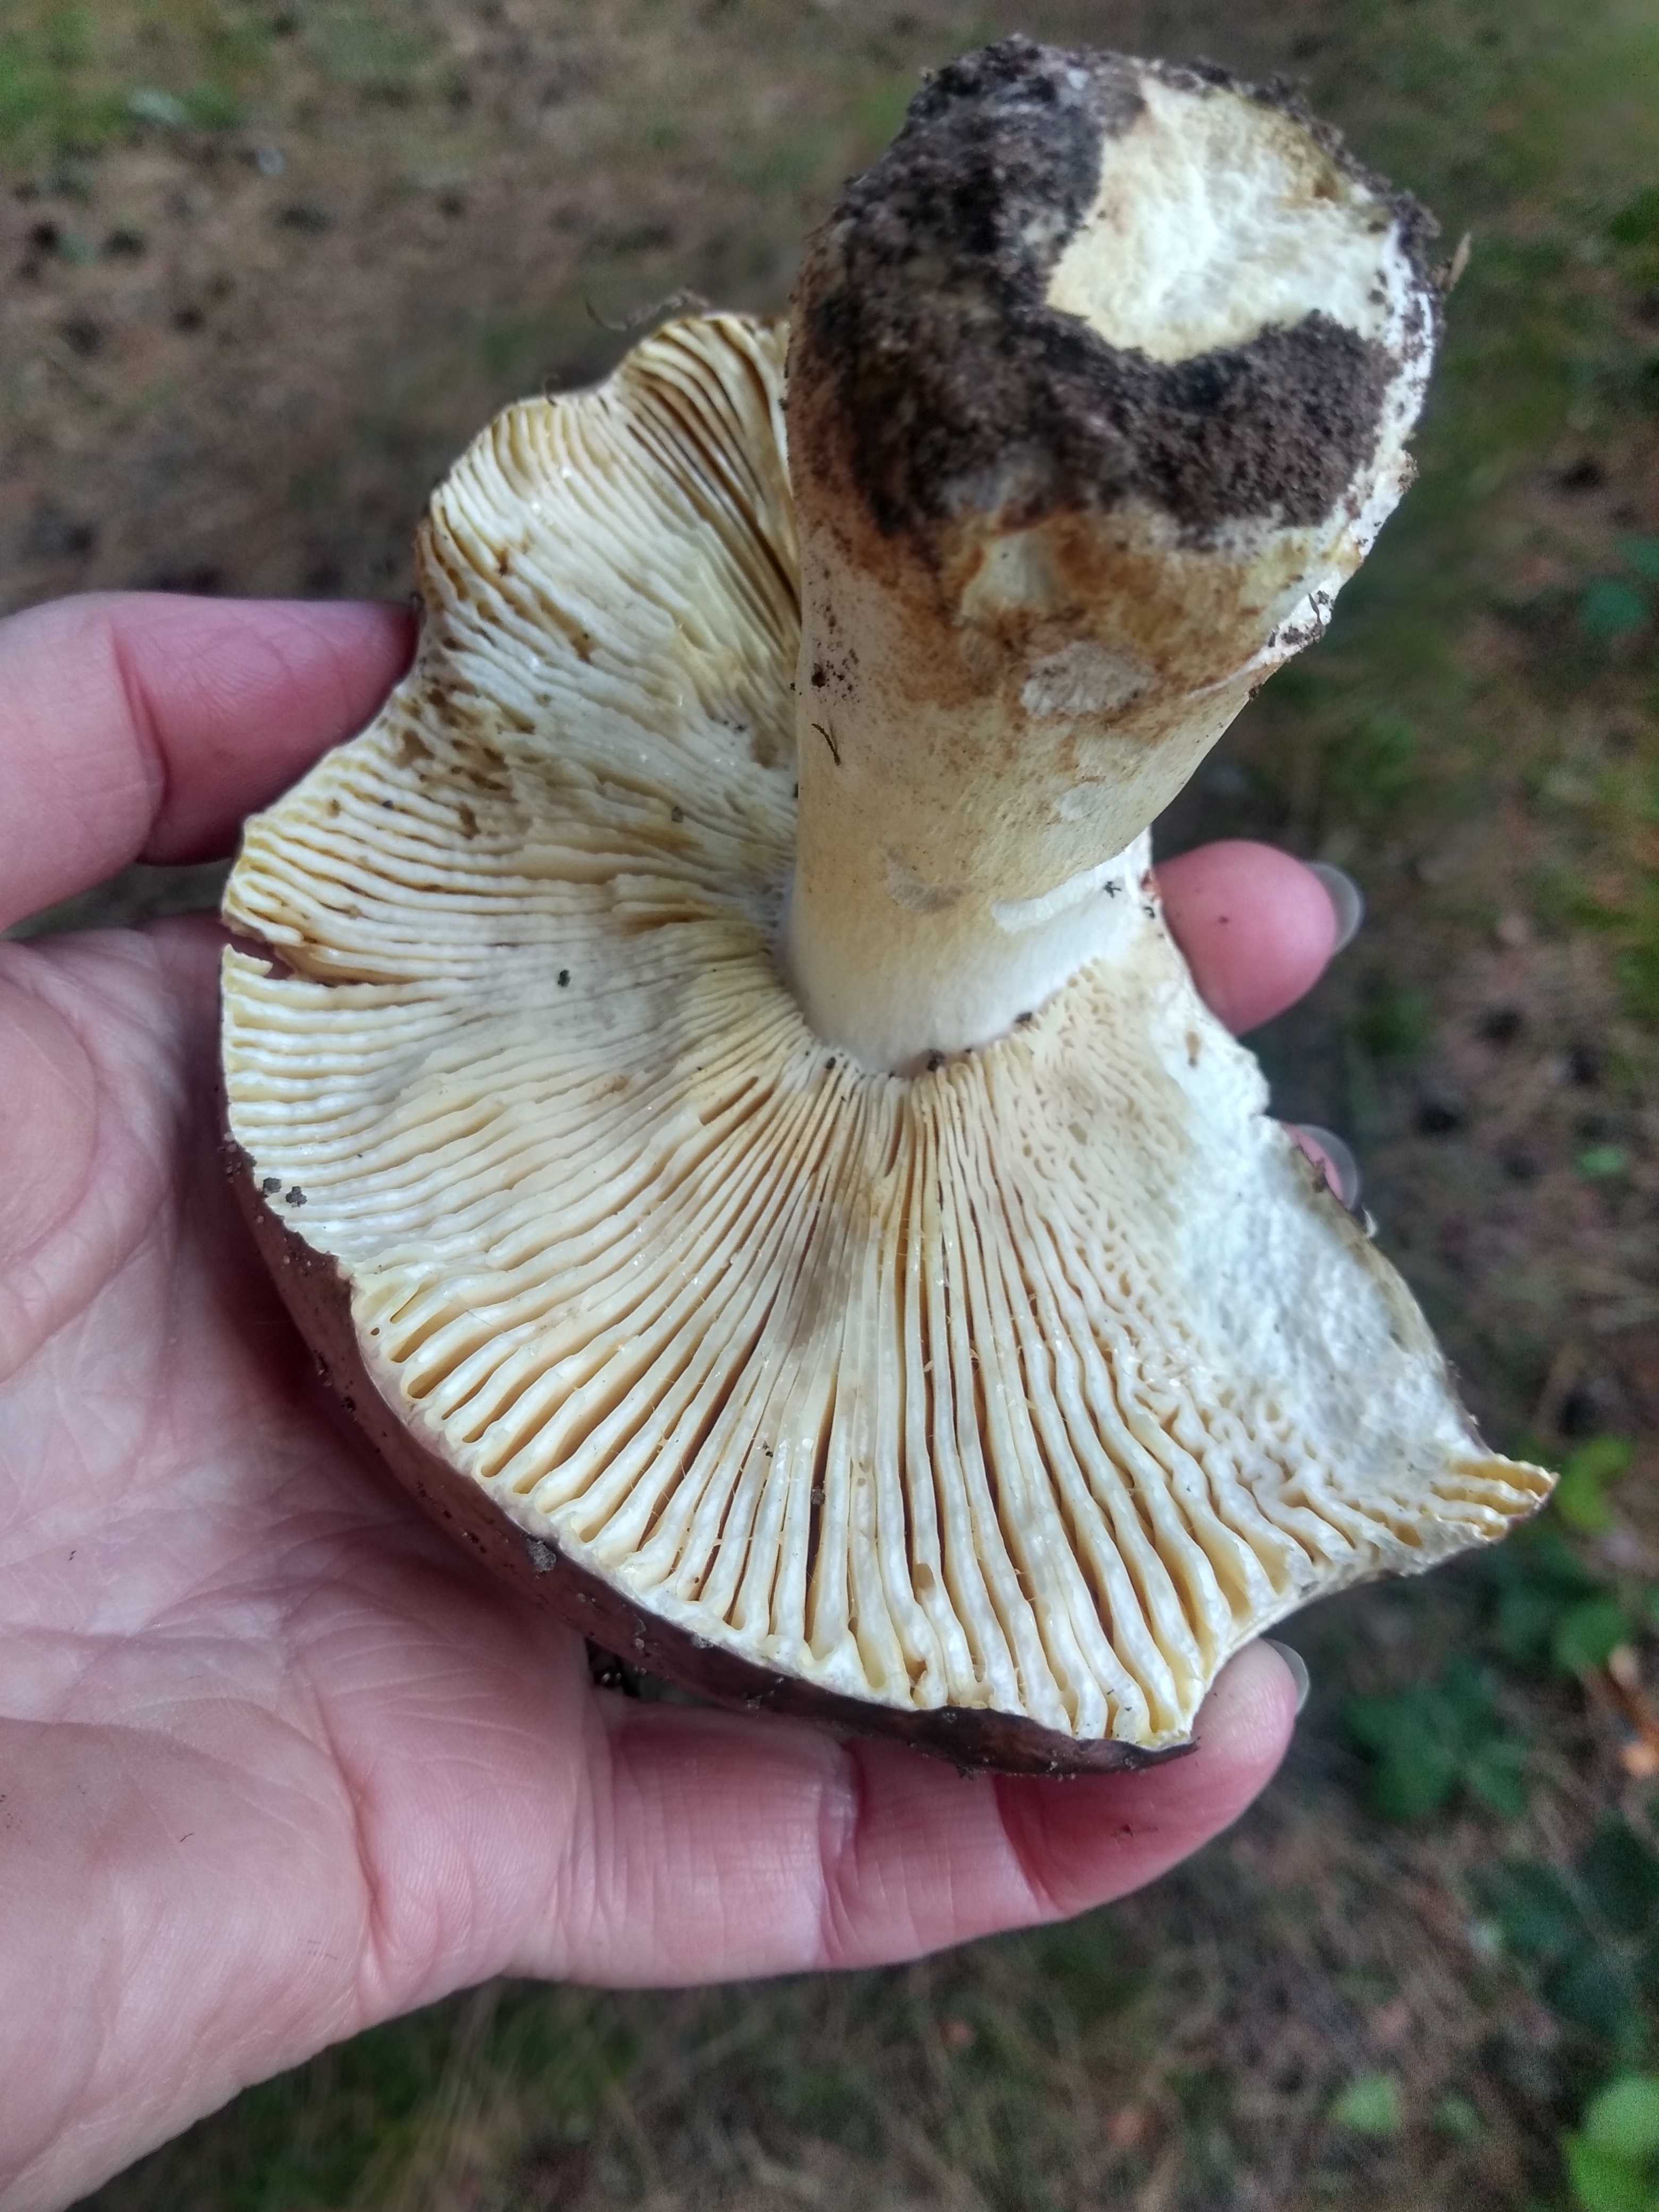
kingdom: Fungi
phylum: Basidiomycota
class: Agaricomycetes
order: Russulales
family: Russulaceae
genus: Russula
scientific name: Russula integra
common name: mandel-skørhat
